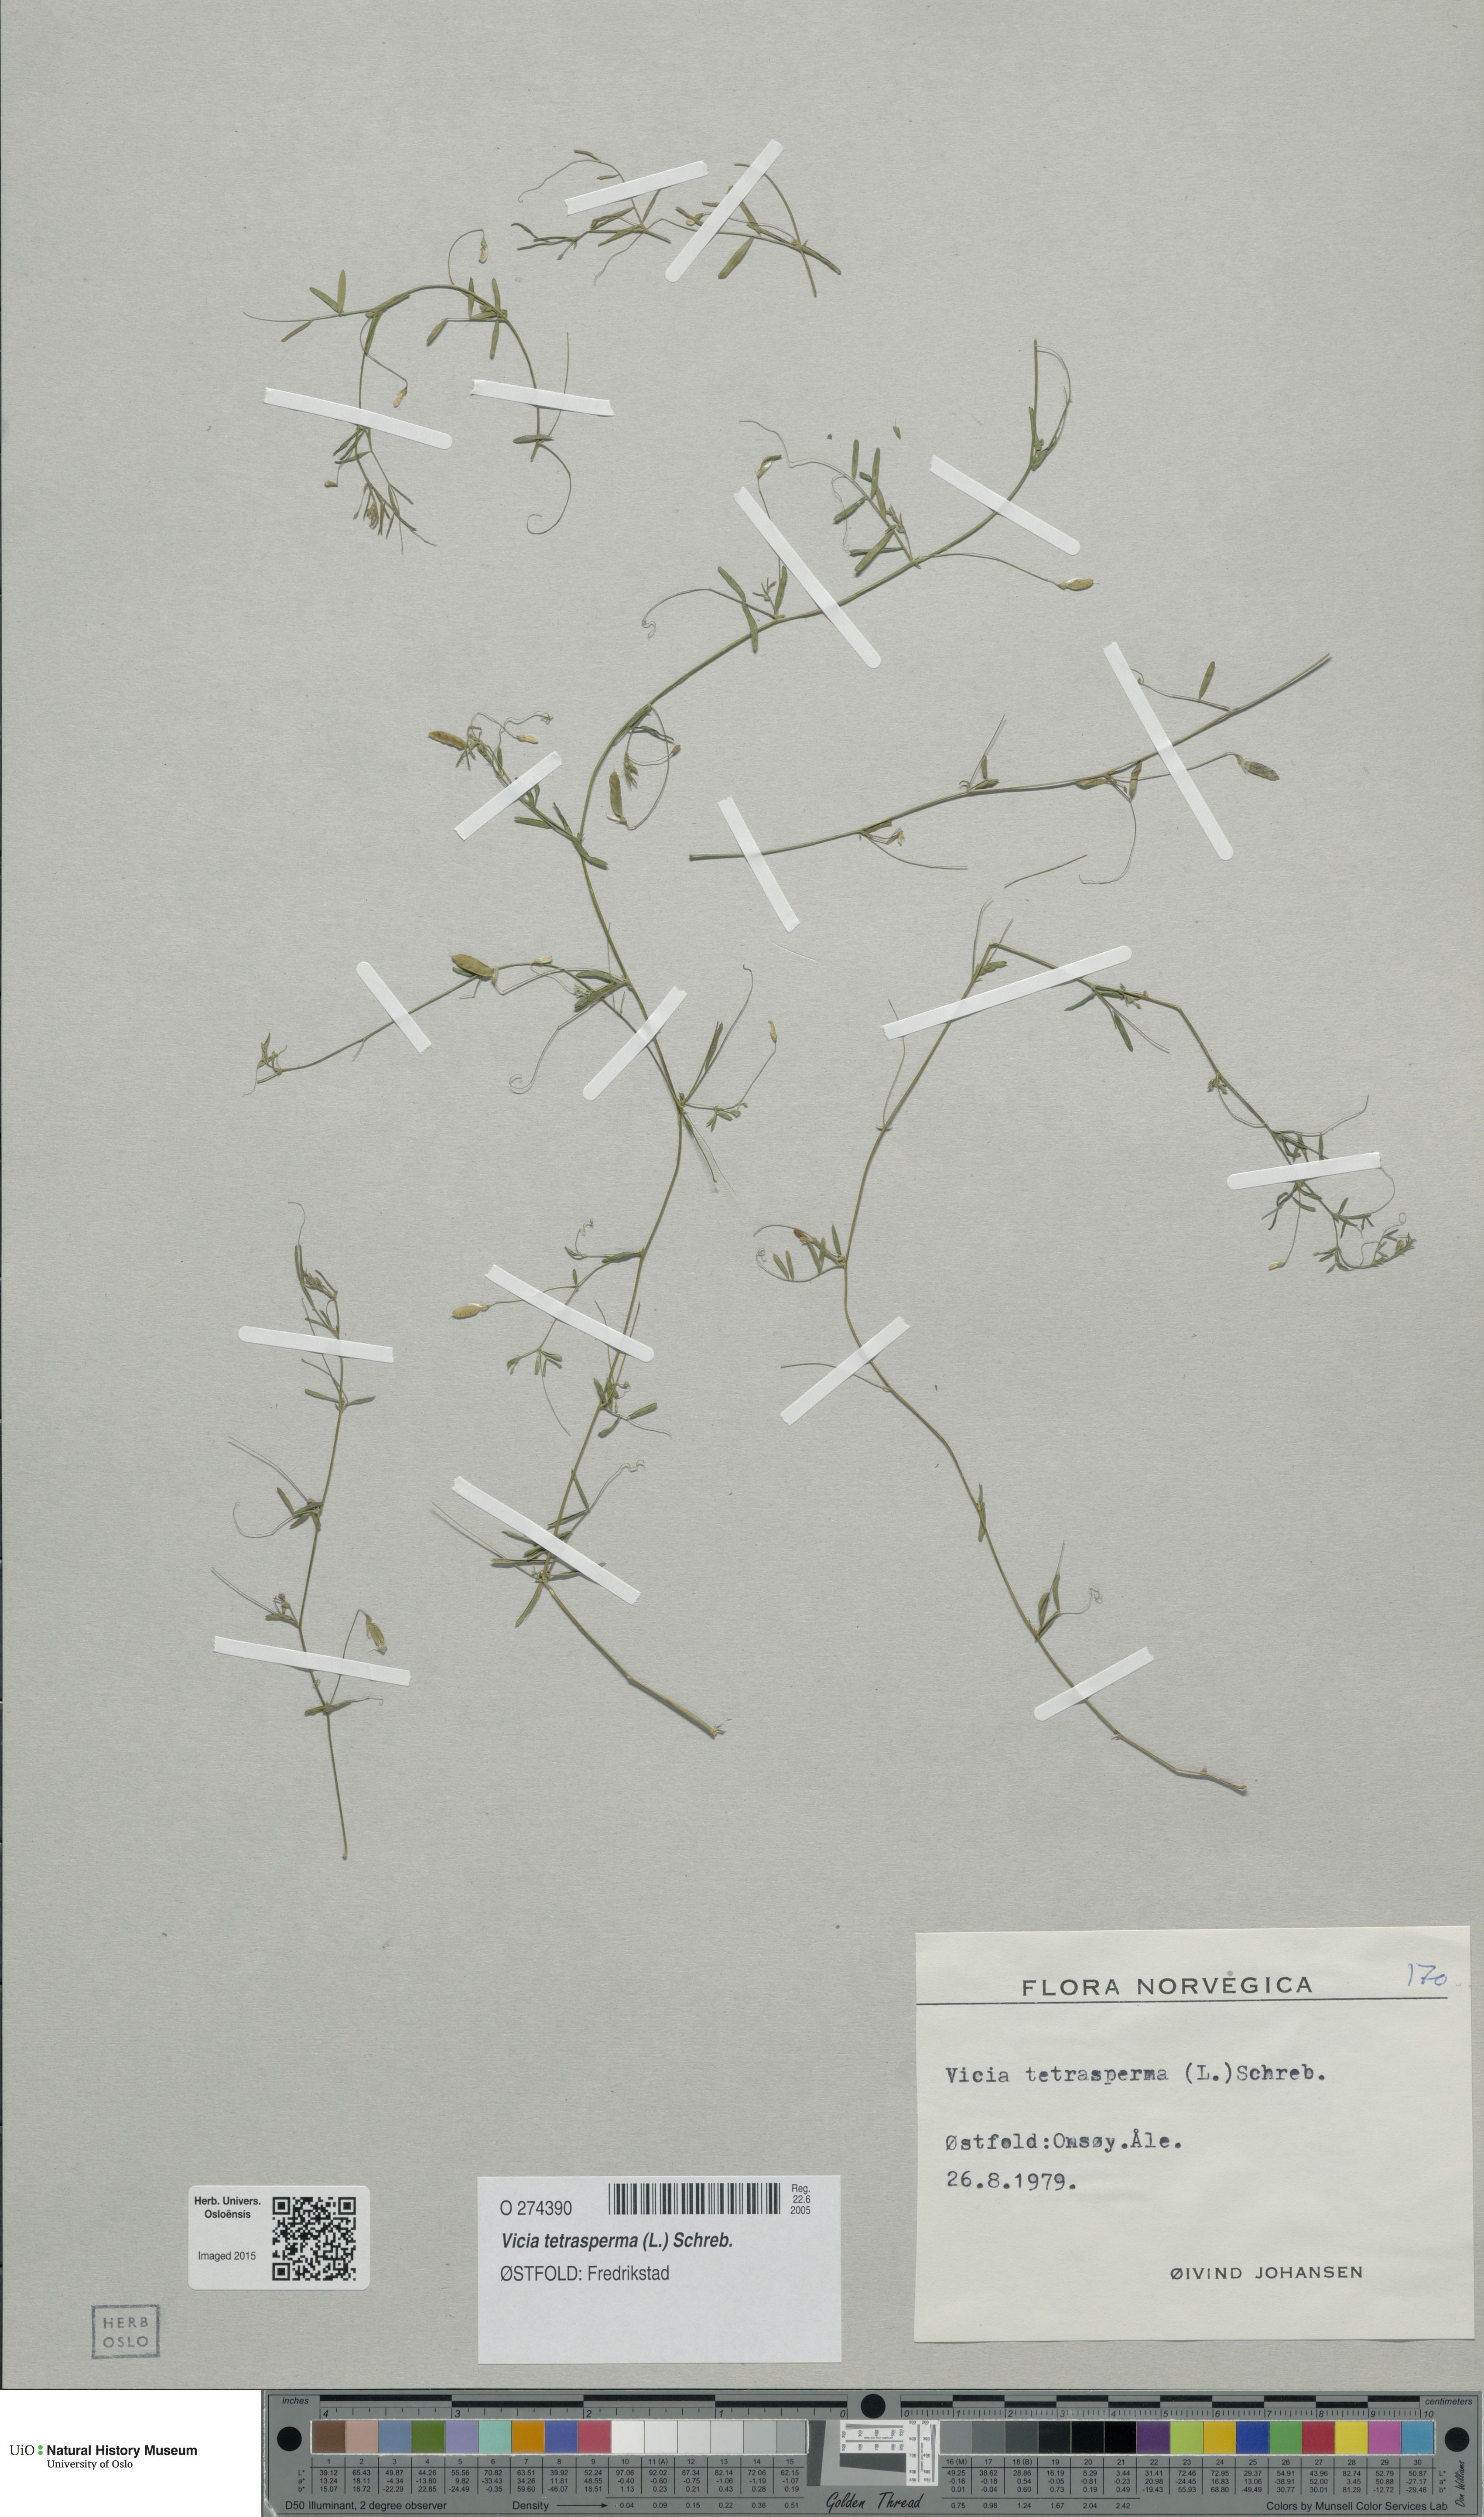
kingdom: Plantae
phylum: Tracheophyta
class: Magnoliopsida
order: Fabales
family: Fabaceae
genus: Vicia
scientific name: Vicia tetrasperma
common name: Smooth tare
